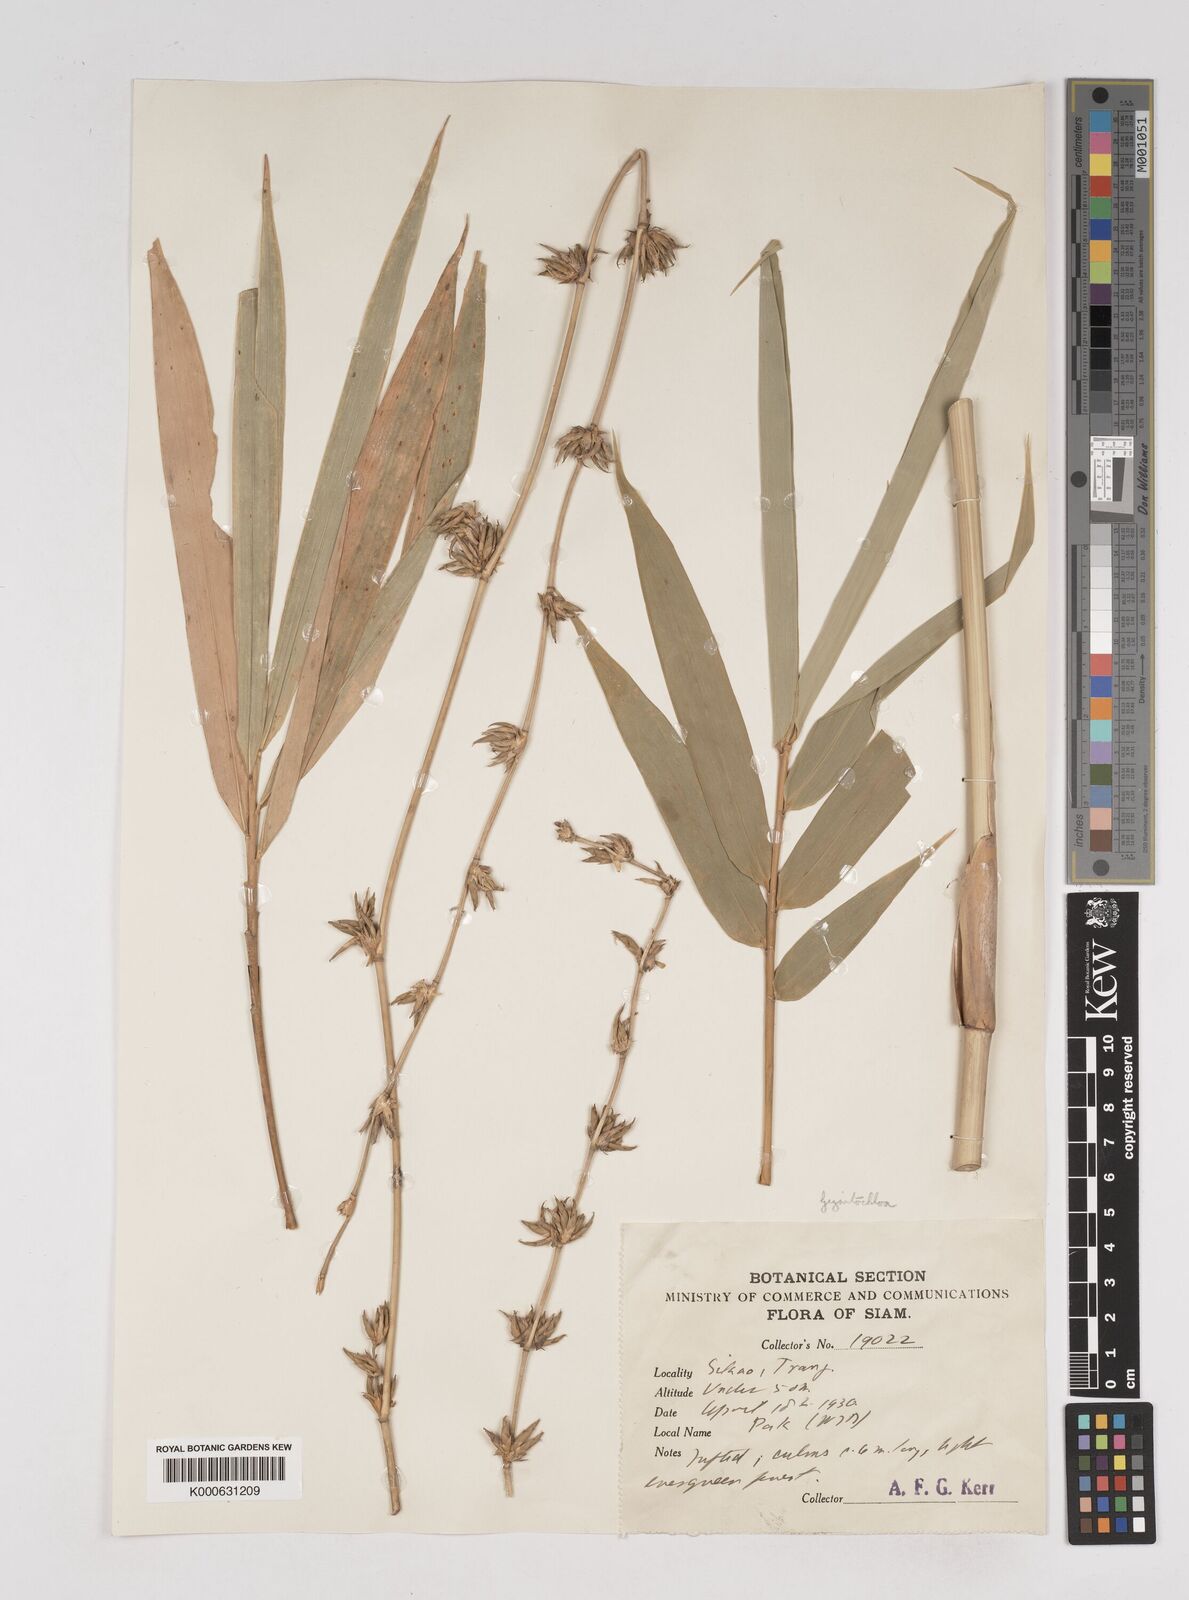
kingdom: Plantae
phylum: Tracheophyta
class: Liliopsida
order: Poales
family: Poaceae
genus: Gigantochloa
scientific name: Gigantochloa
